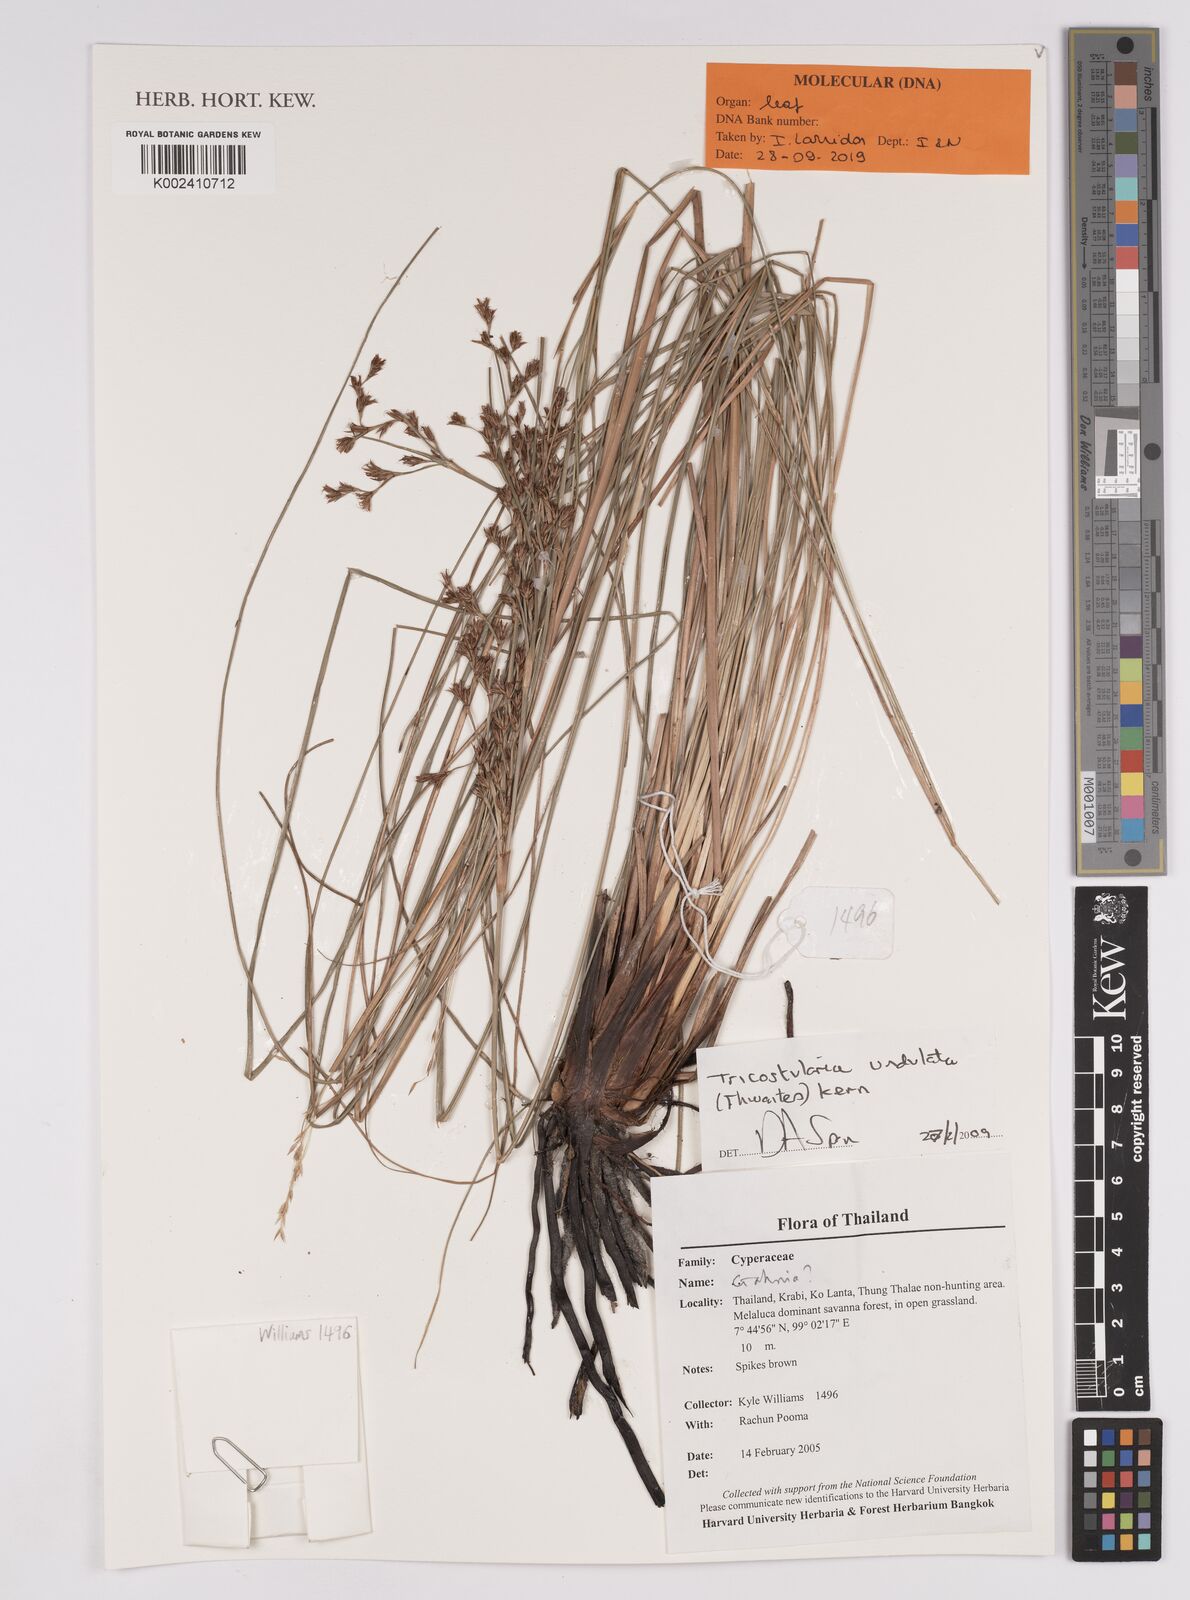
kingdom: Plantae
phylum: Tracheophyta
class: Liliopsida
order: Poales
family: Cyperaceae
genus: Anthelepis
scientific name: Anthelepis undulata
